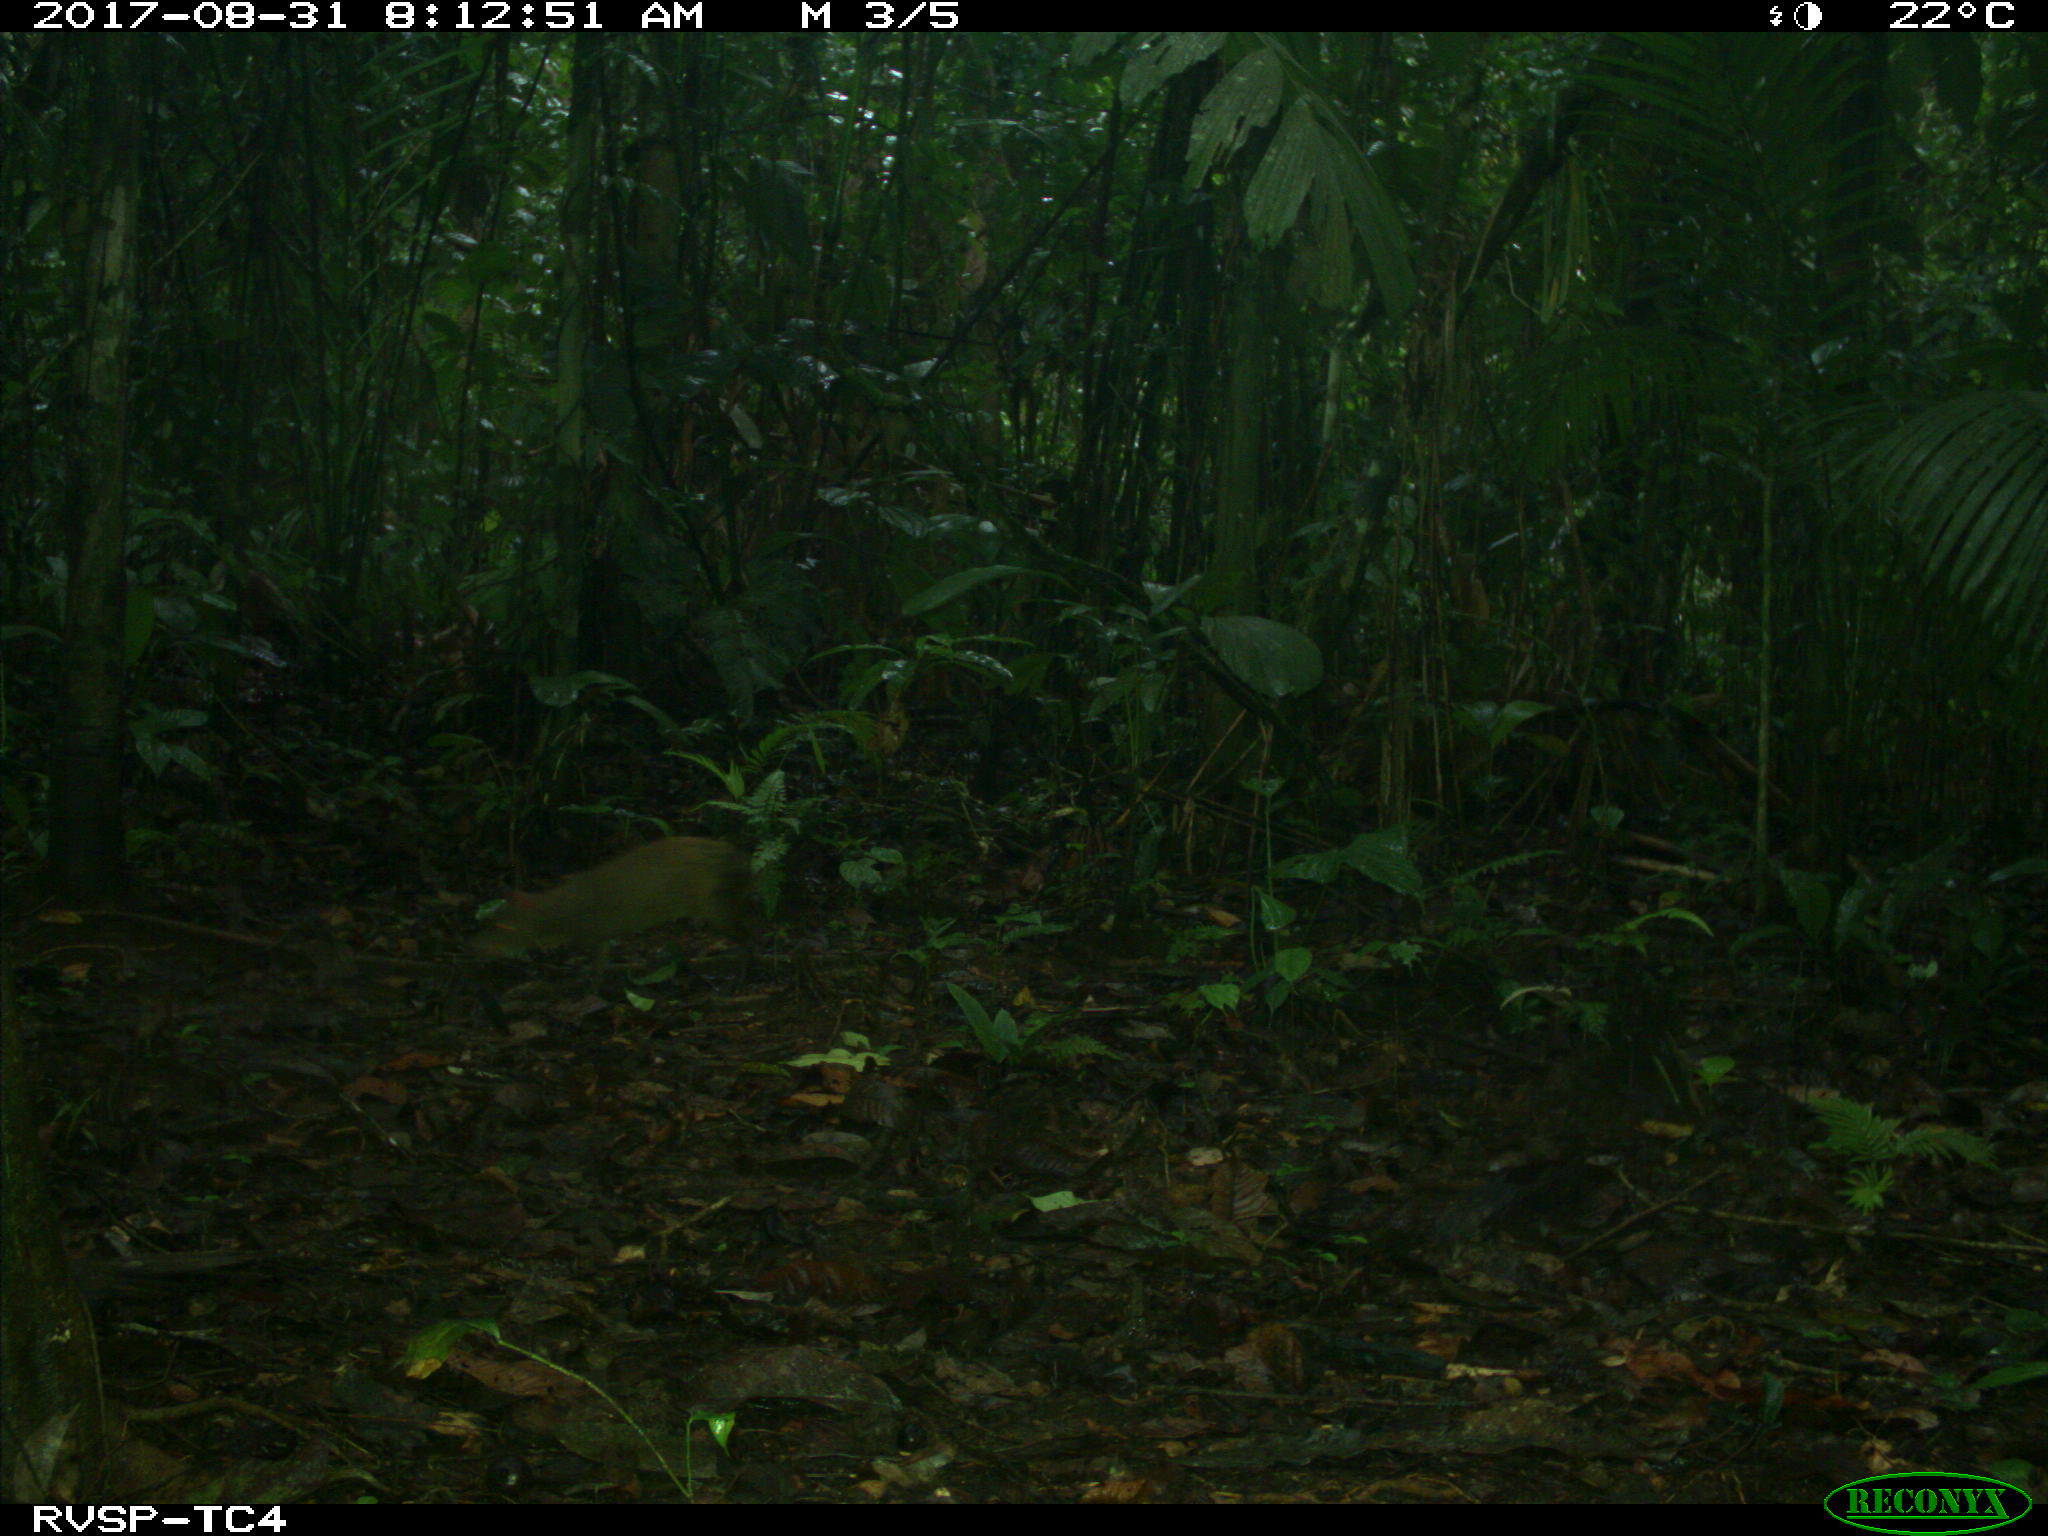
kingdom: Animalia
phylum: Chordata
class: Mammalia
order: Rodentia
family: Dasyproctidae
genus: Dasyprocta
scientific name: Dasyprocta punctata
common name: Central american agouti
